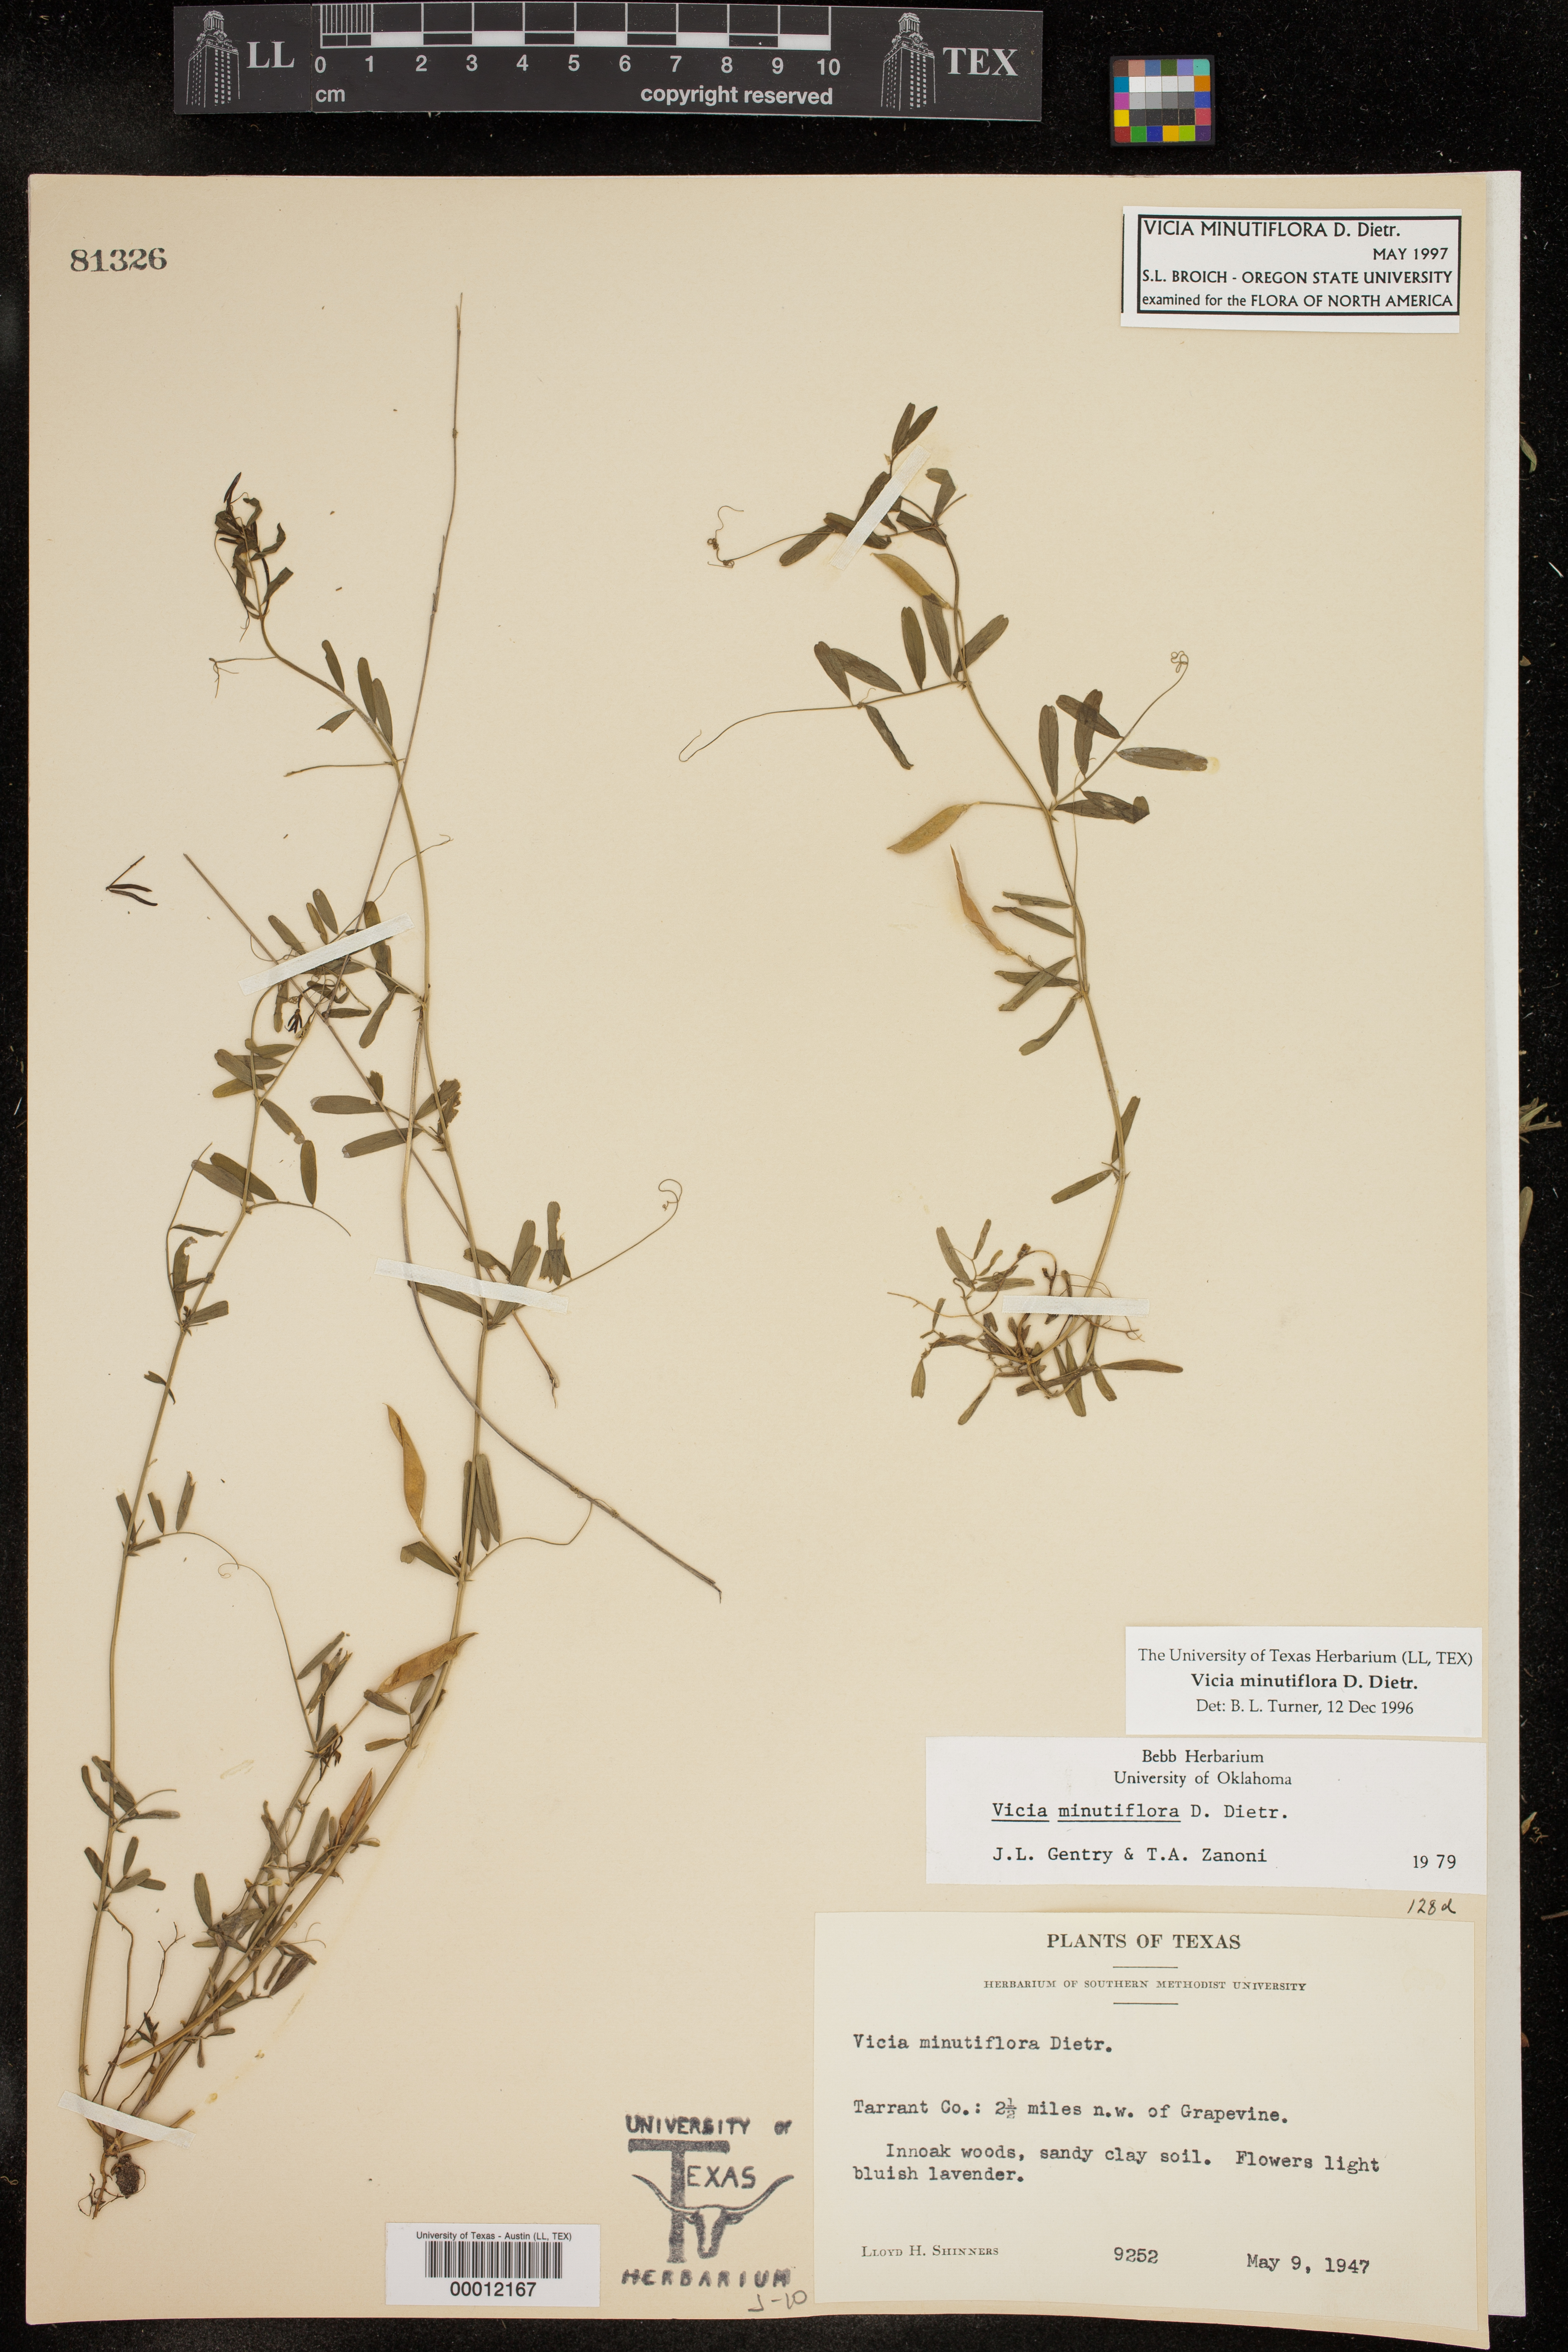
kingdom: Plantae
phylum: Tracheophyta
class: Magnoliopsida
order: Fabales
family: Fabaceae
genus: Vicia
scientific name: Vicia minutiflora
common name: Pygmy-flower vetch
